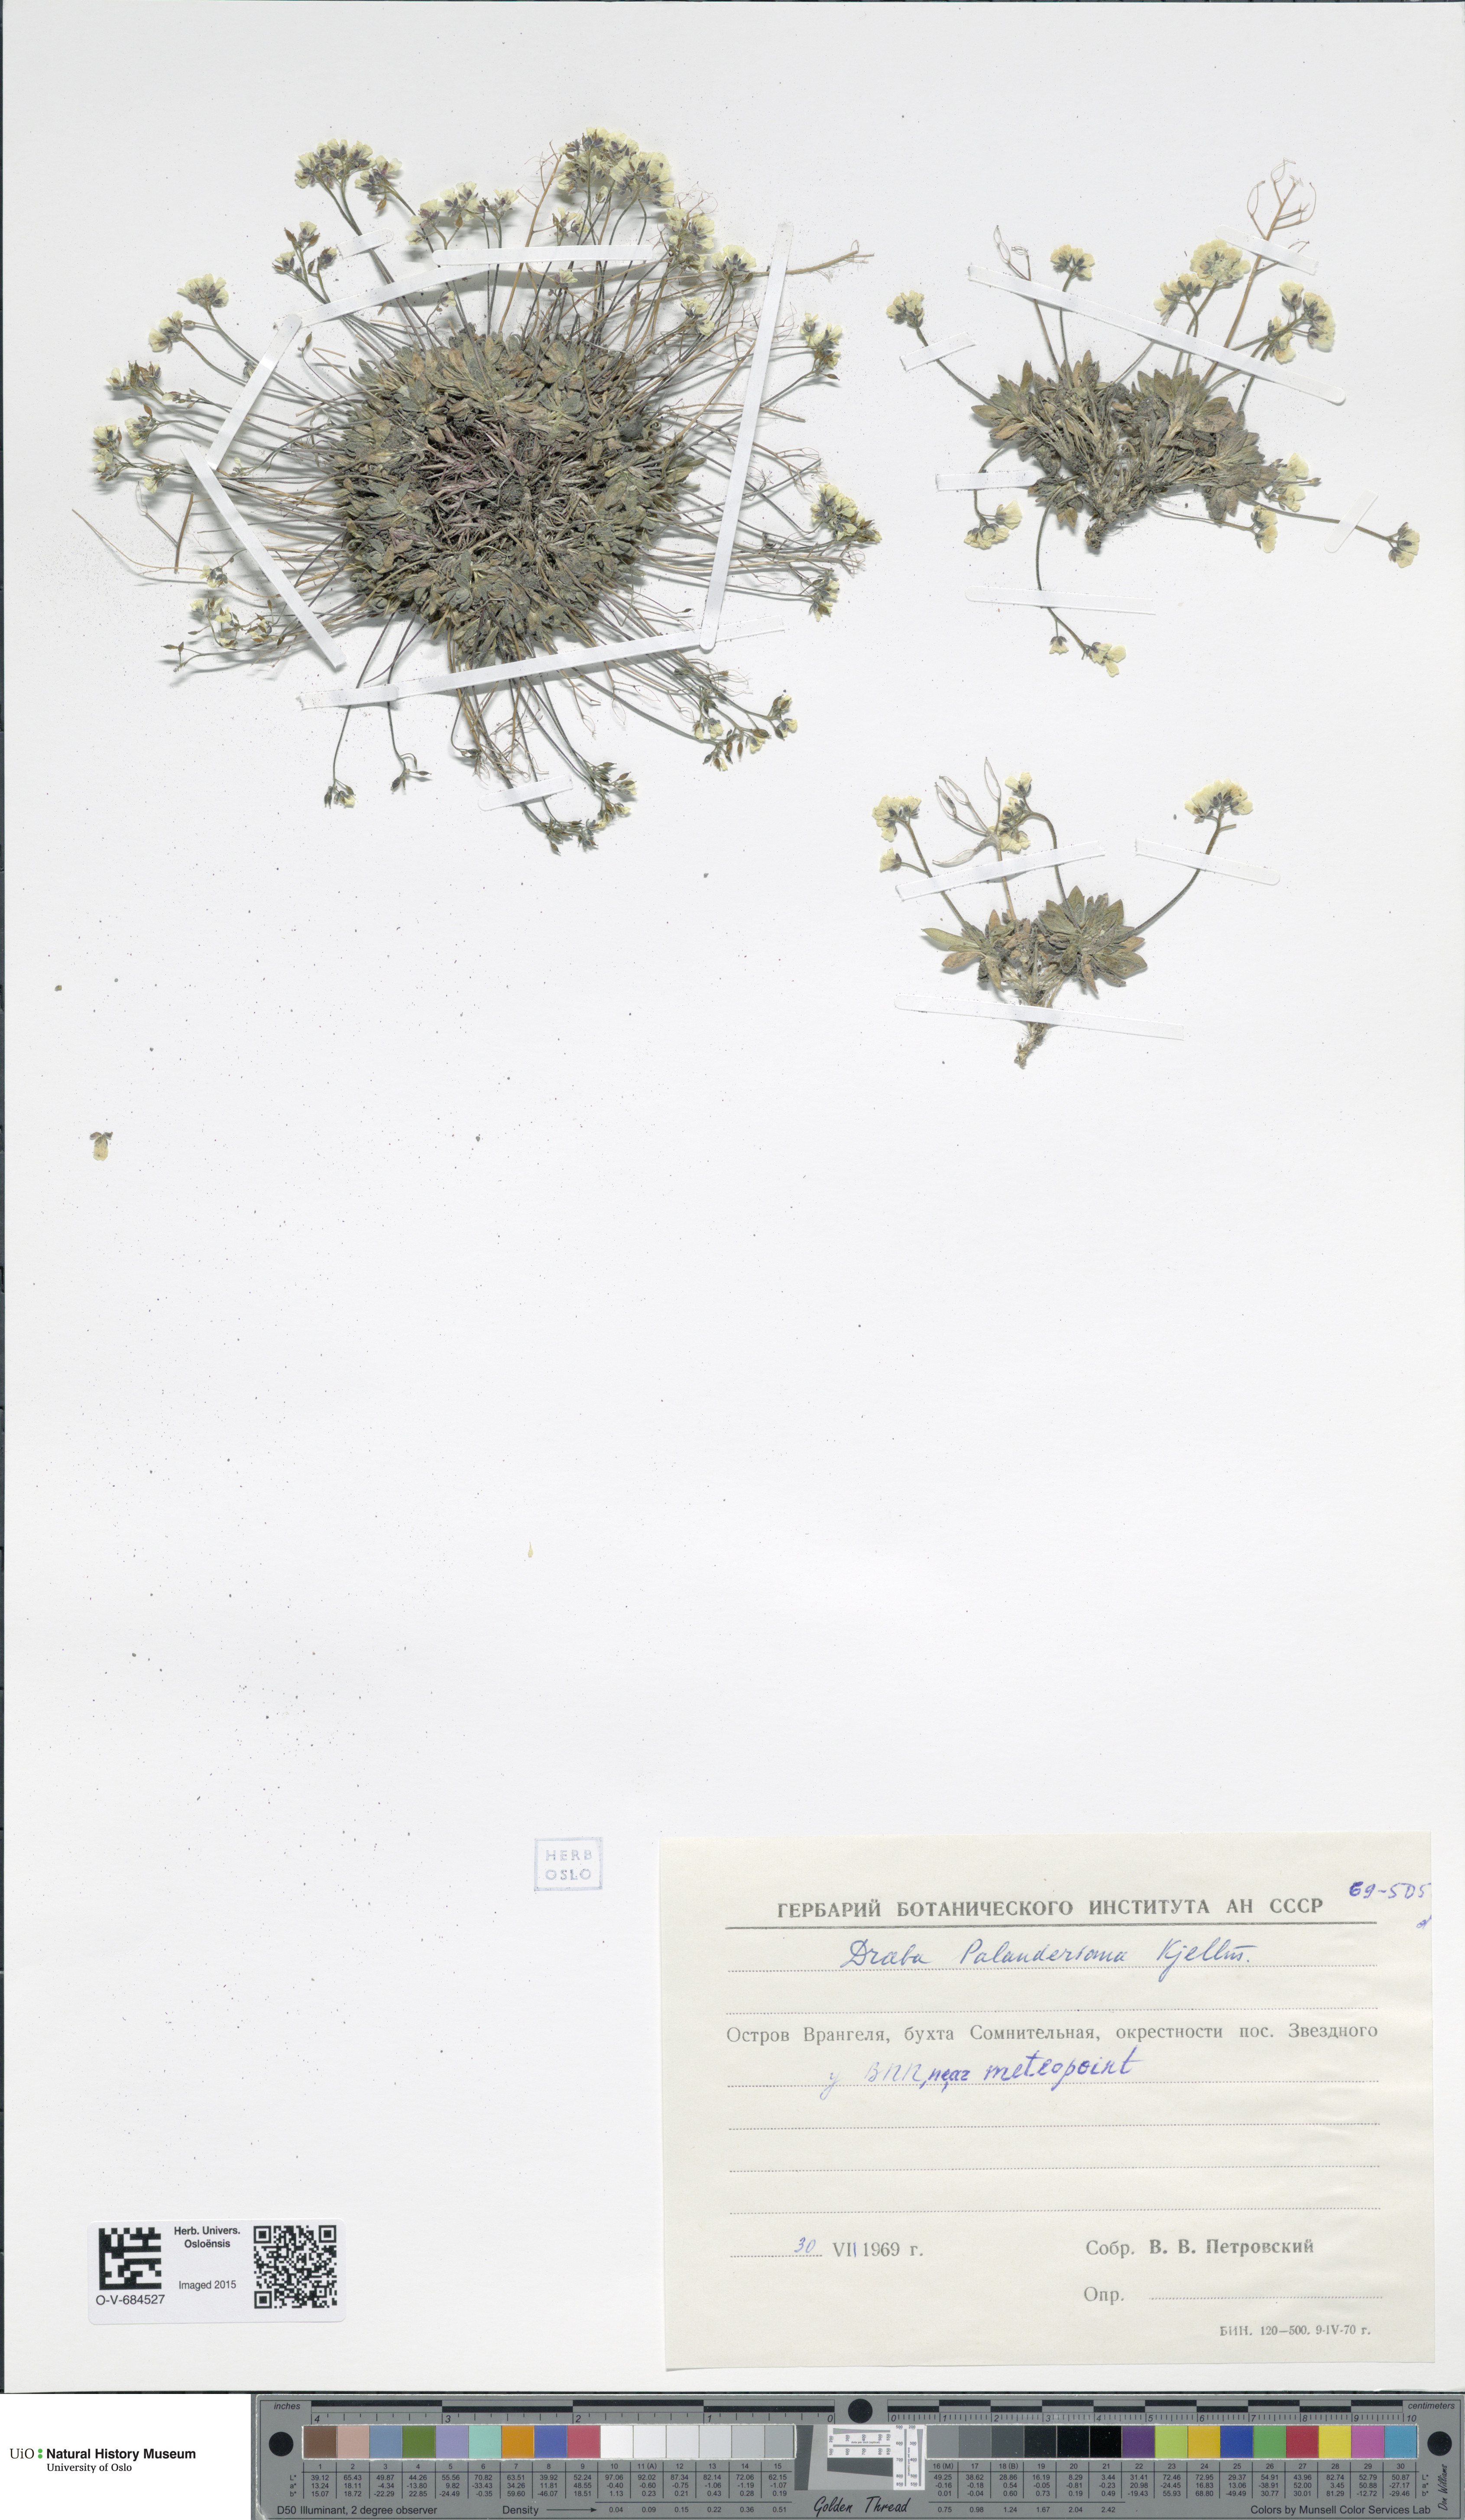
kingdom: Plantae
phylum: Tracheophyta
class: Magnoliopsida
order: Brassicales
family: Brassicaceae
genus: Draba
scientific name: Draba palanderiana
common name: Palander's draba
